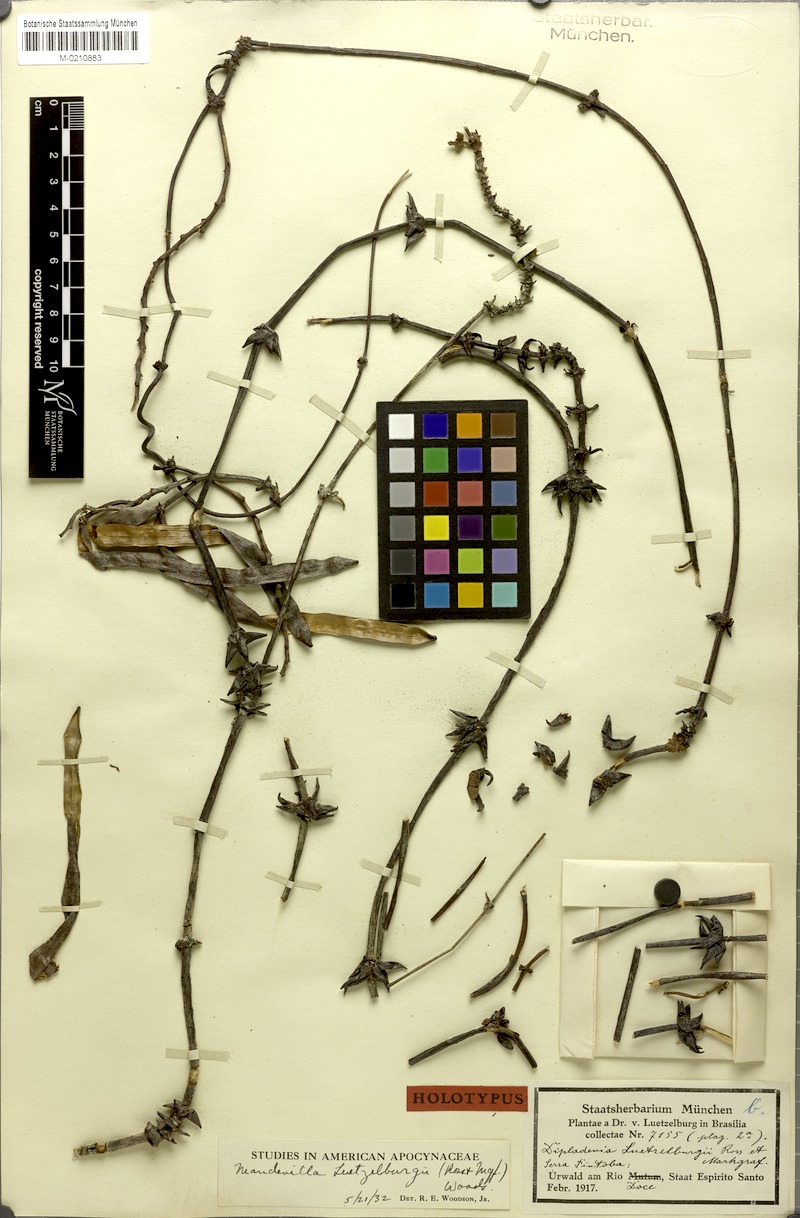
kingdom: Plantae
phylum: Tracheophyta
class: Magnoliopsida
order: Gentianales
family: Apocynaceae
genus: Mandevilla
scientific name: Mandevilla luetzelburgii
